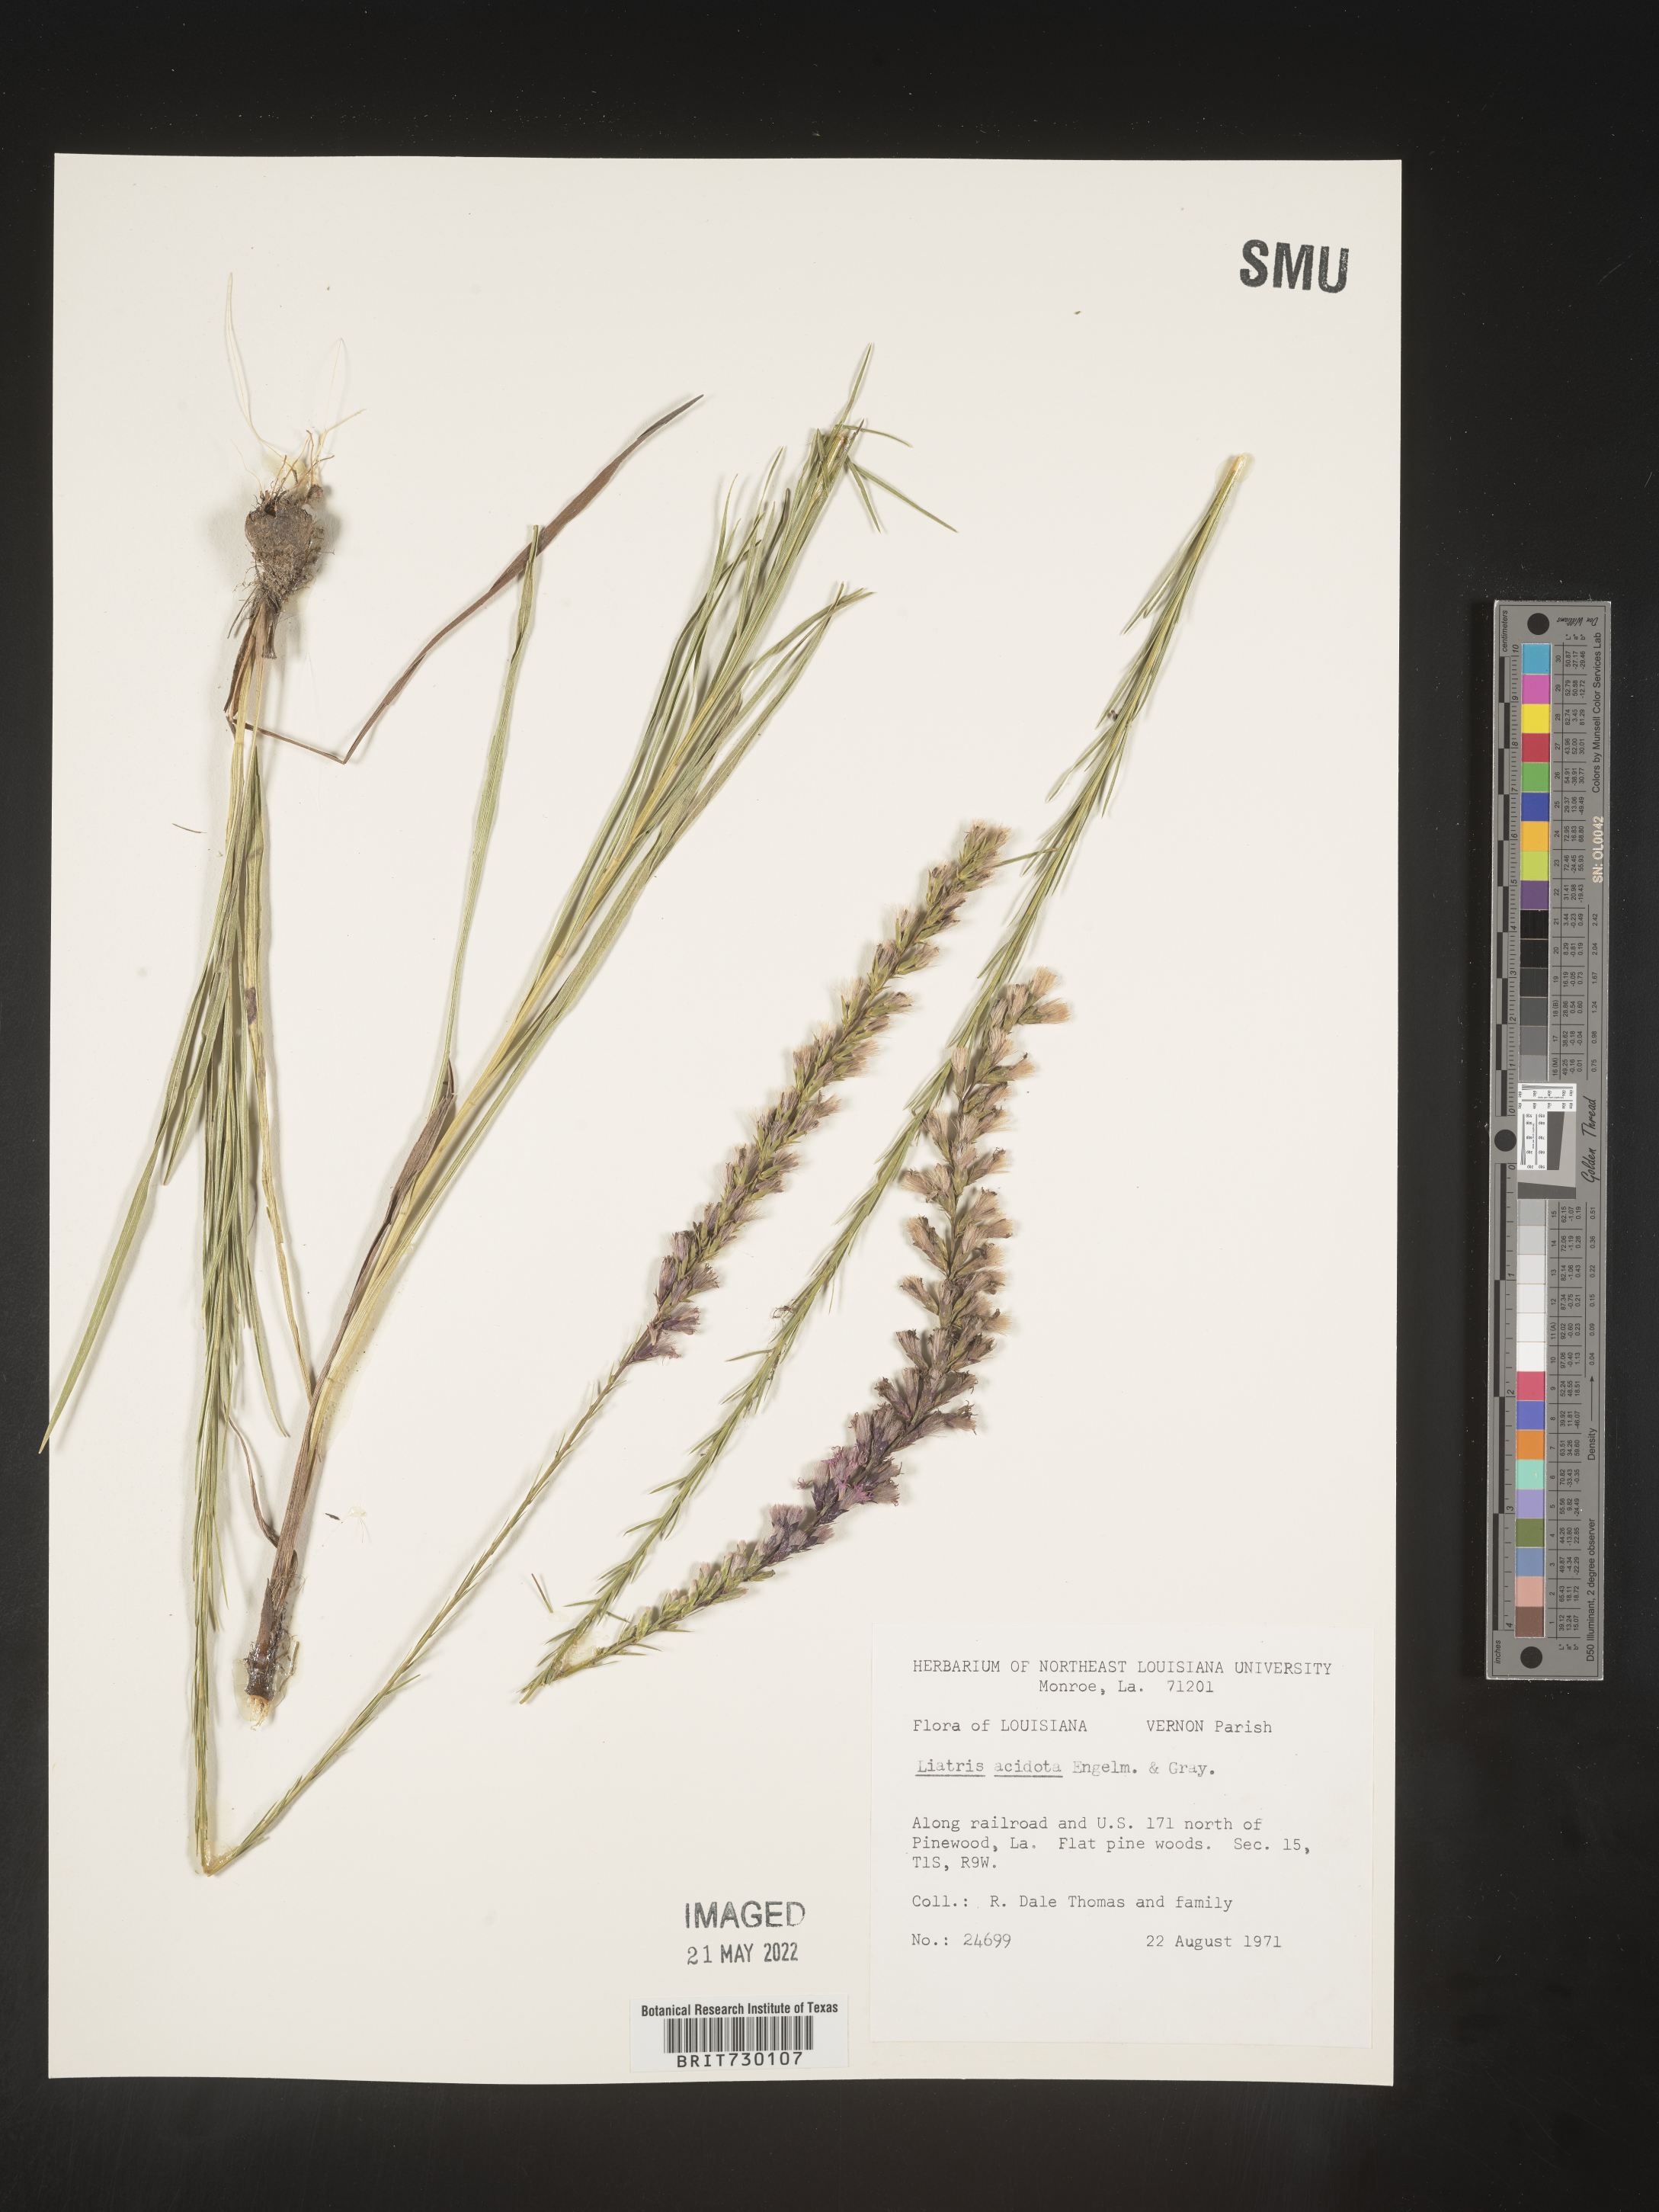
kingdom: Plantae
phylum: Tracheophyta
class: Magnoliopsida
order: Asterales
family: Asteraceae
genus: Liatris
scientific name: Liatris acidota
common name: Gulf coast gayfeather
